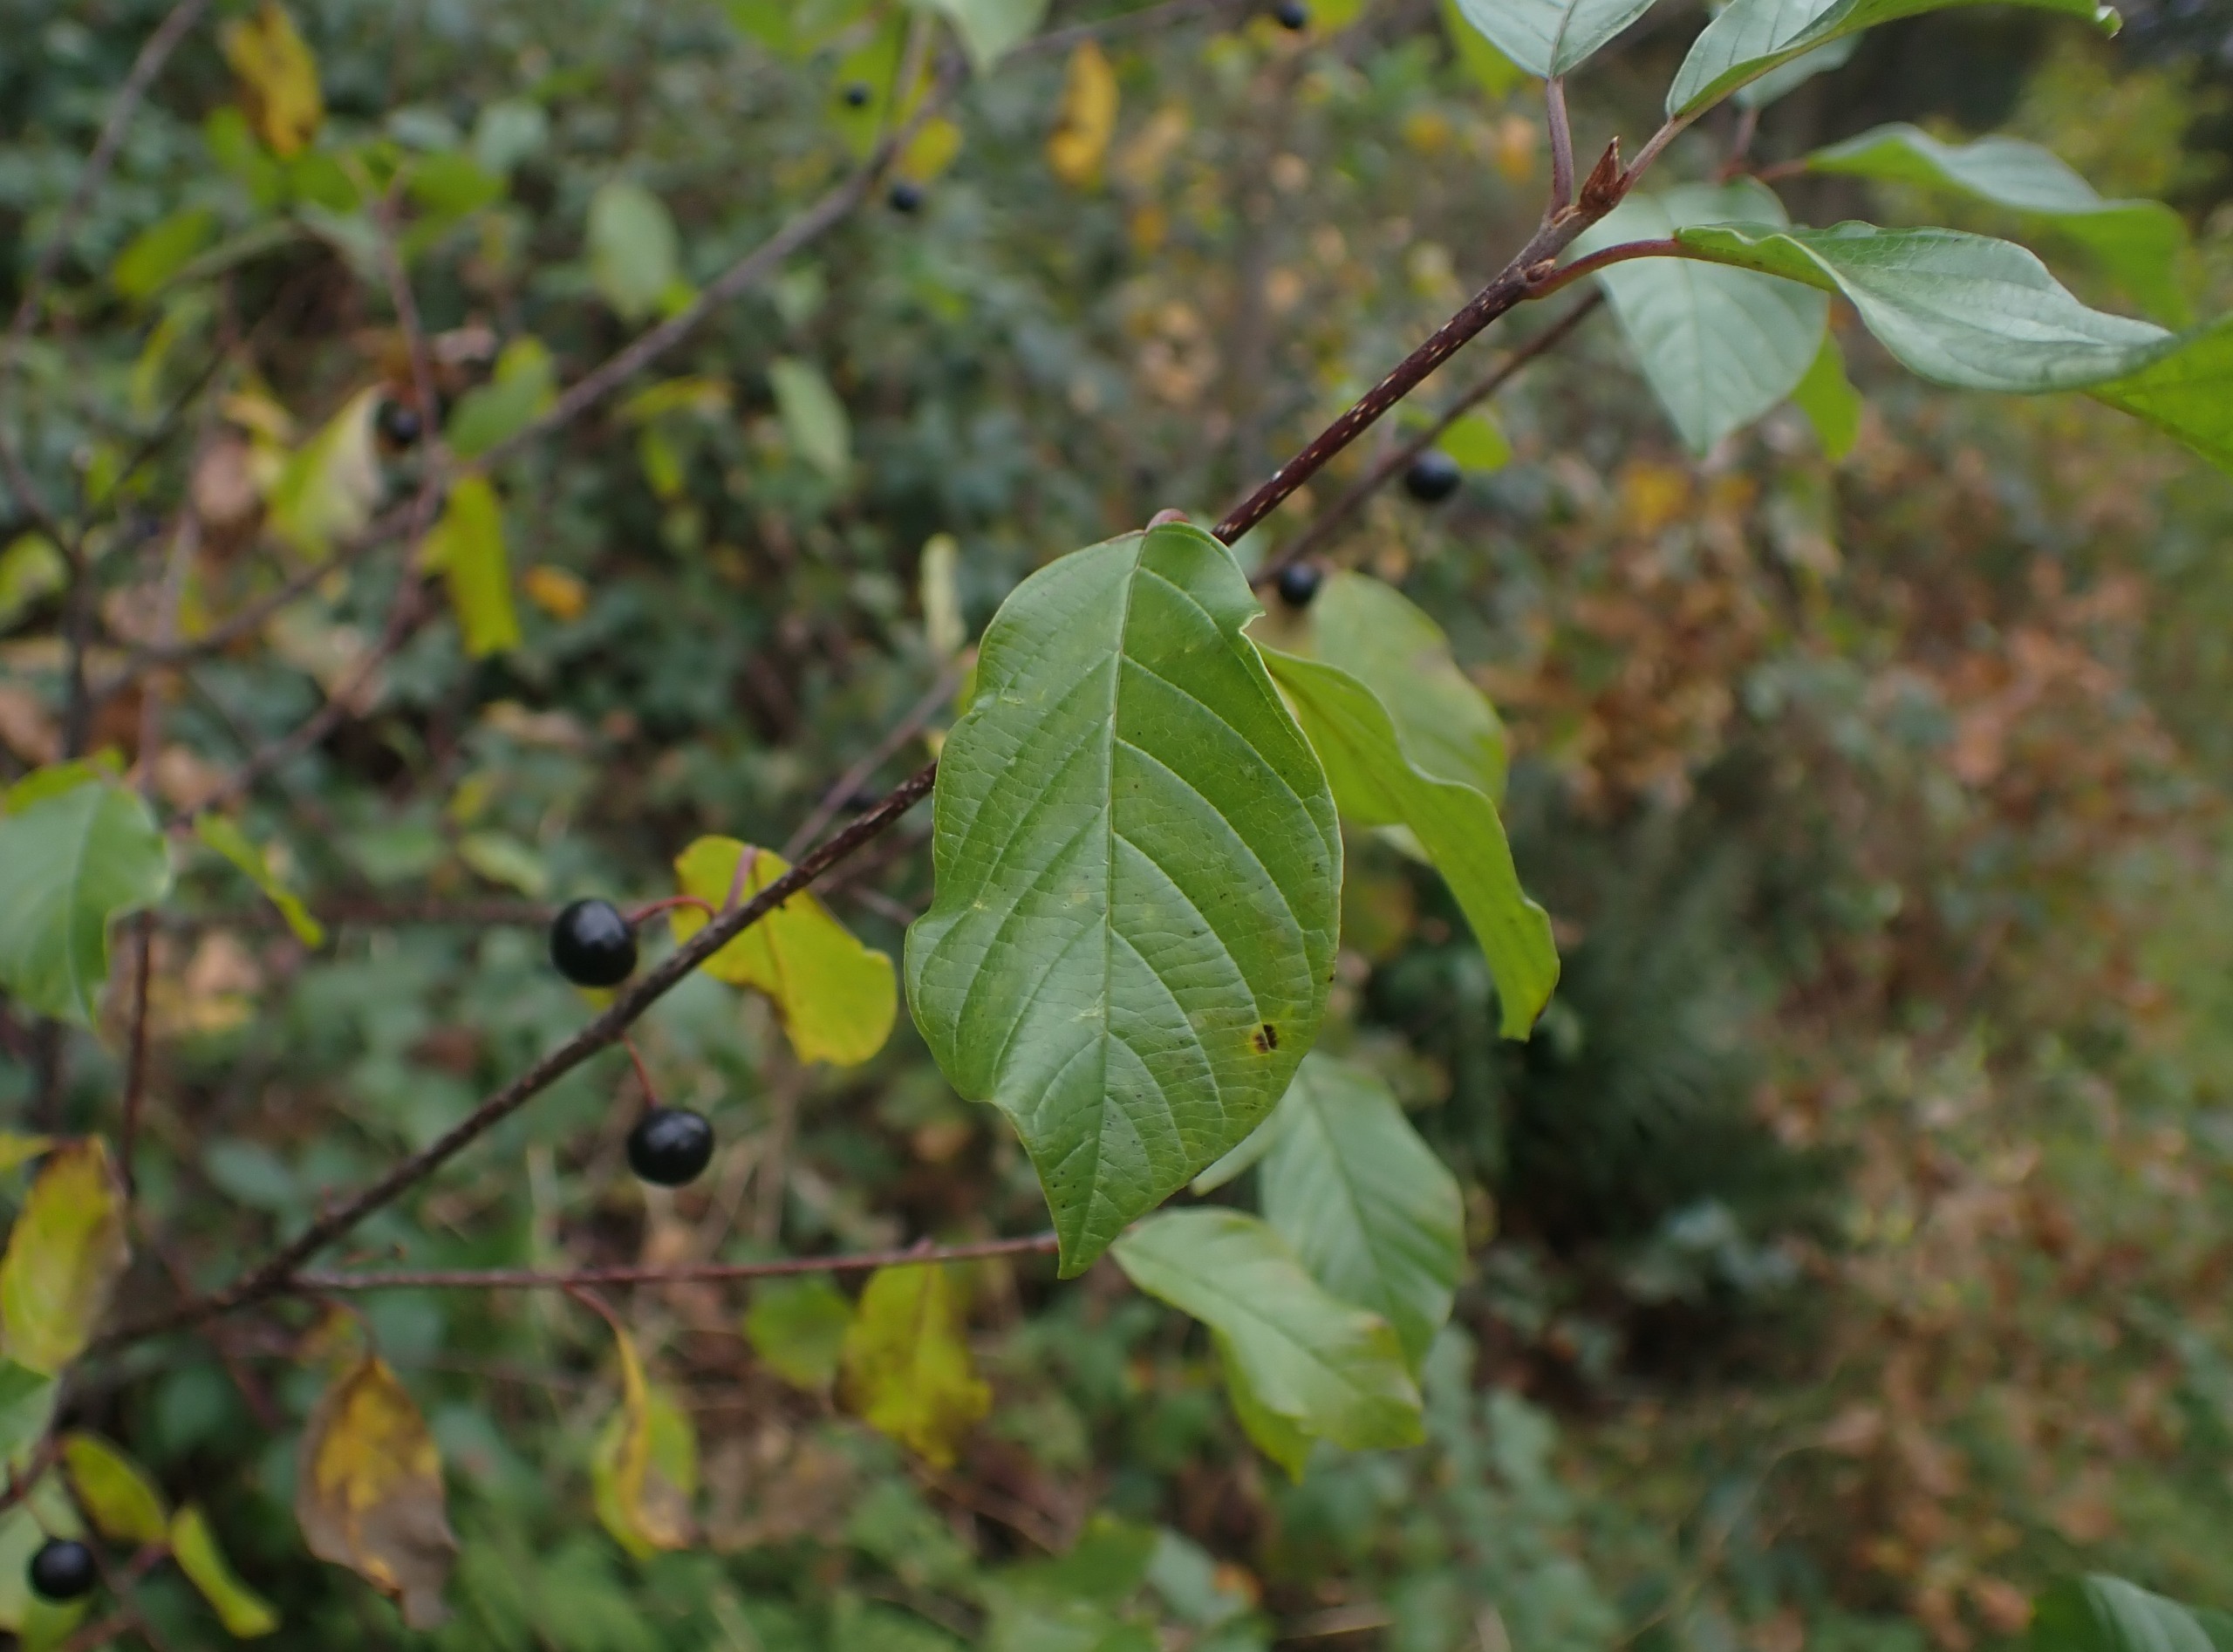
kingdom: Plantae
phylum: Tracheophyta
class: Magnoliopsida
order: Rosales
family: Rhamnaceae
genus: Frangula
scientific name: Frangula alnus
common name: Tørst
